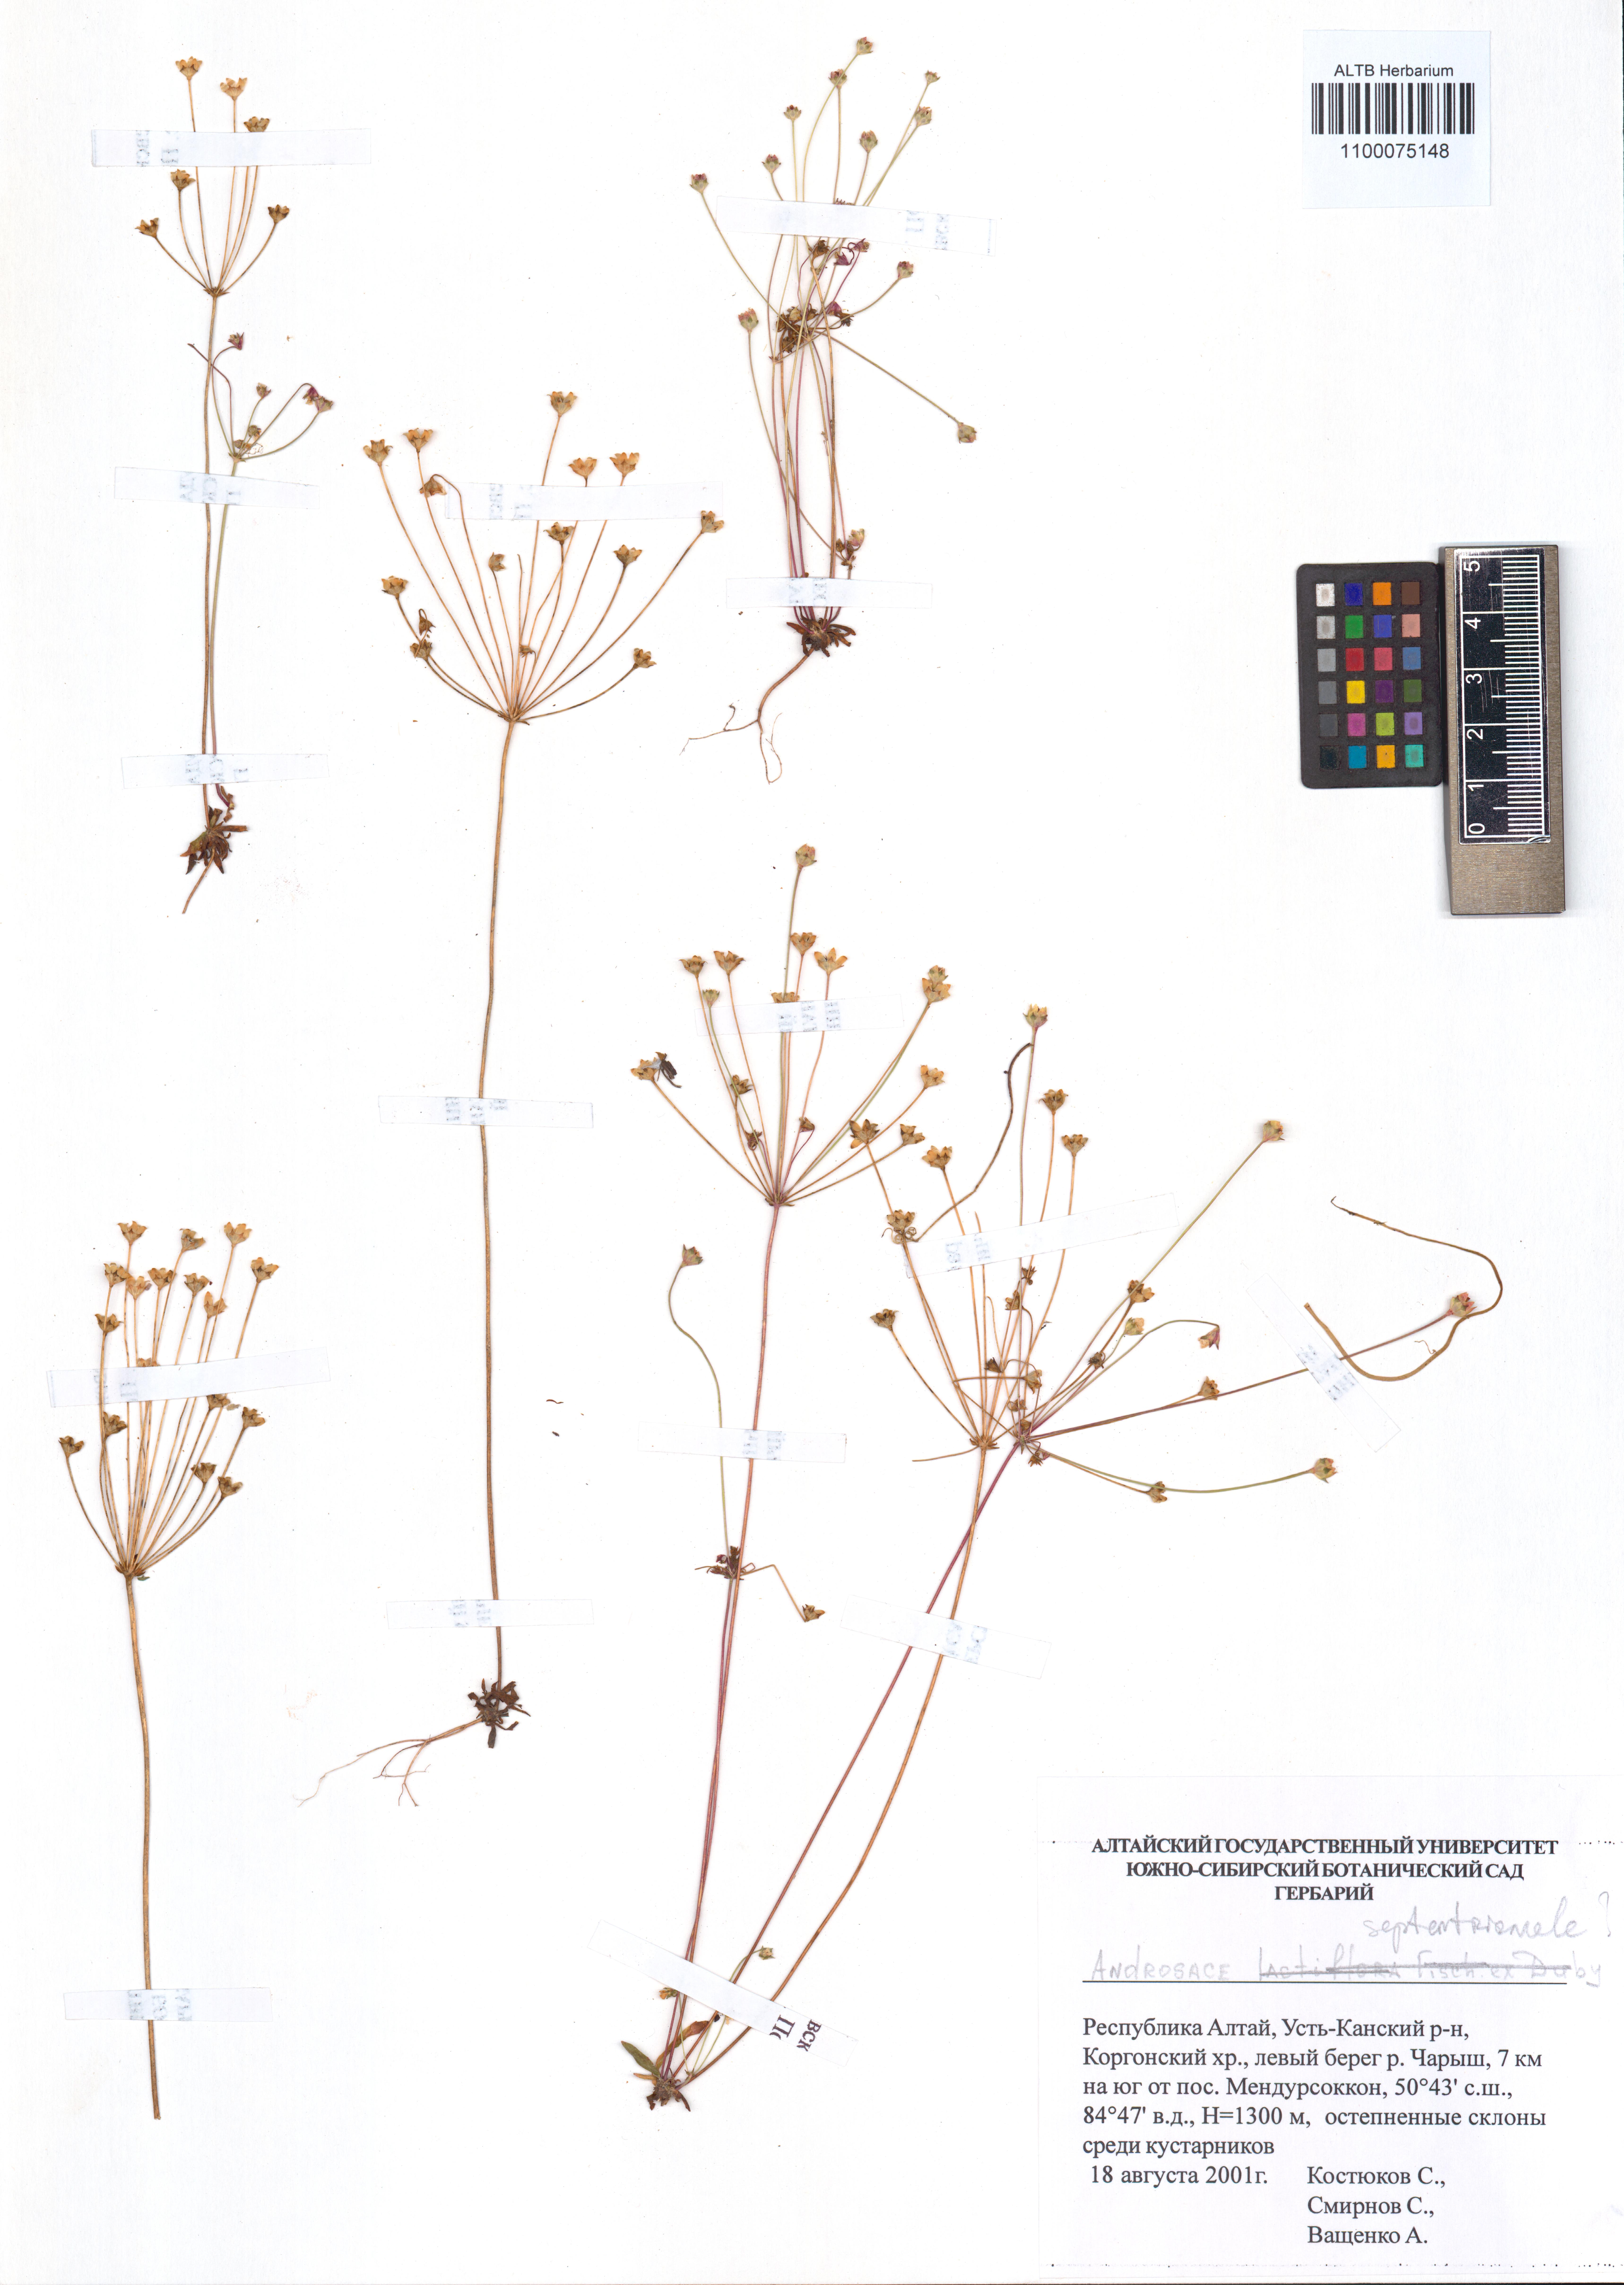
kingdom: Plantae
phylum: Tracheophyta
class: Magnoliopsida
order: Ericales
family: Primulaceae
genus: Androsace
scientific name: Androsace septentrionalis
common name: Hairy northern fairy-candelabra
